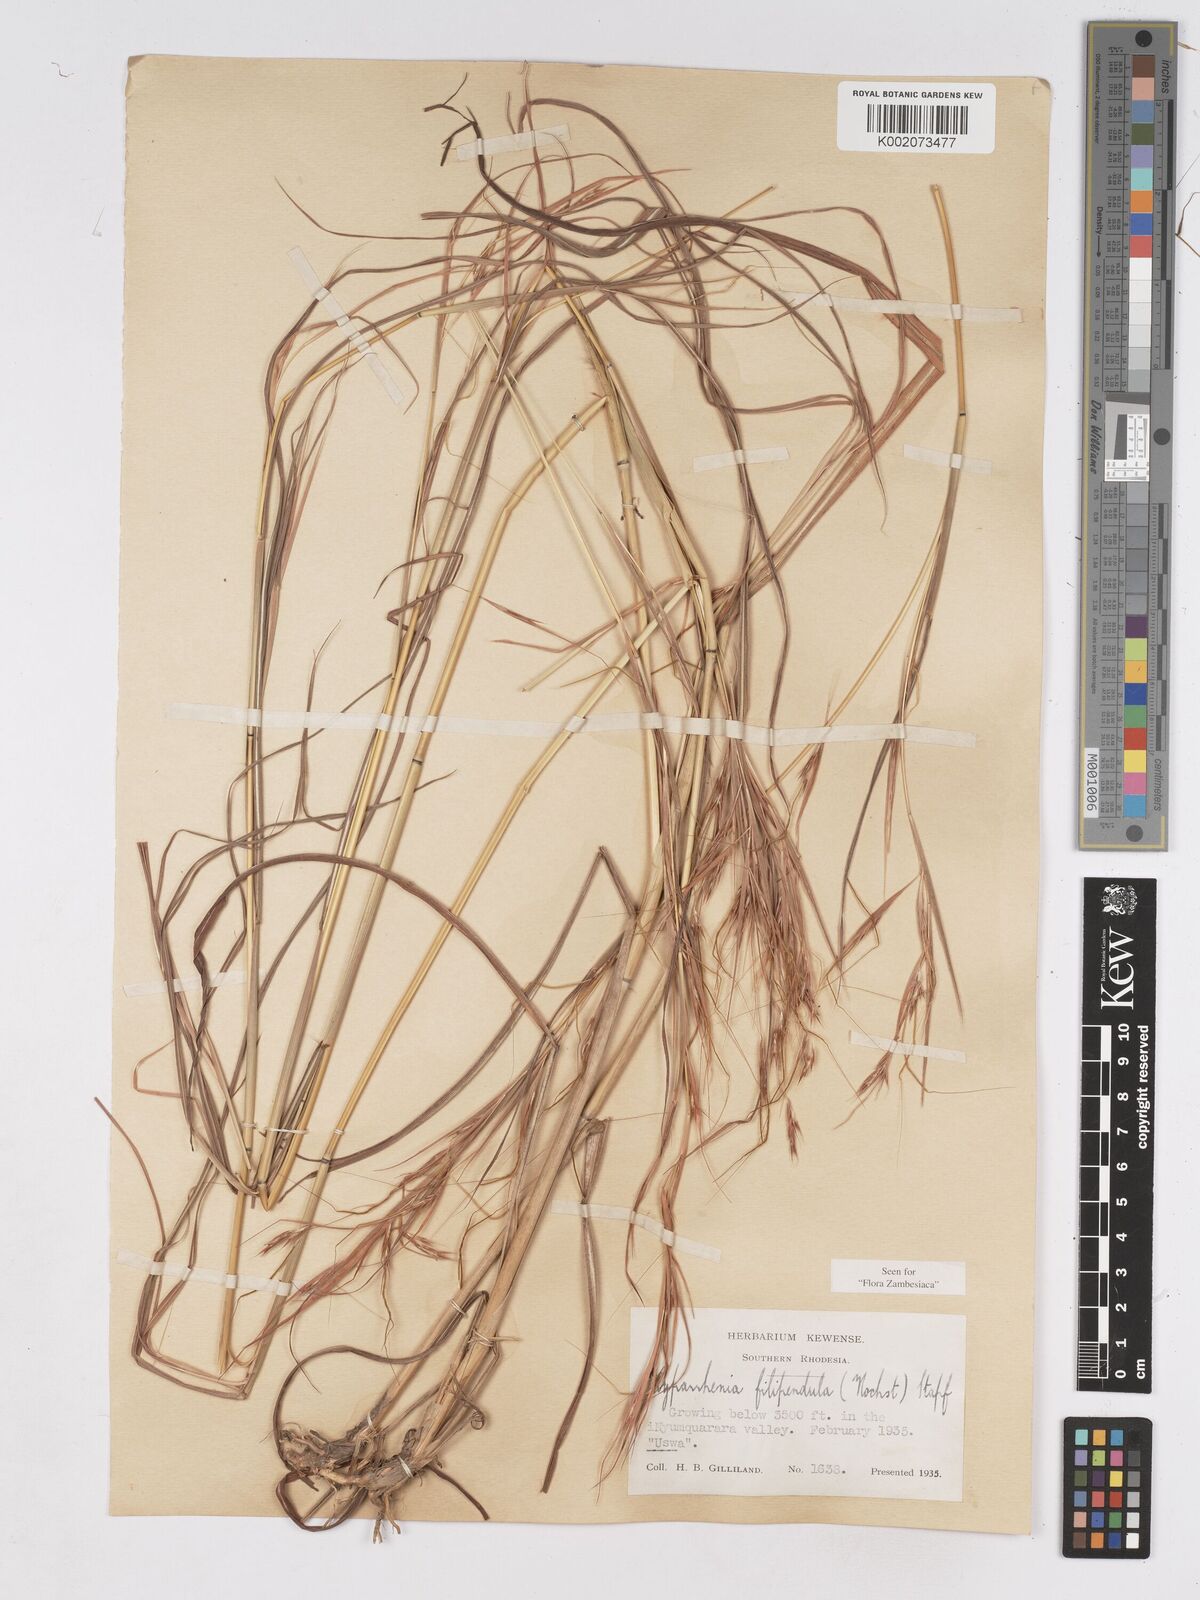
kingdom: Plantae
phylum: Tracheophyta
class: Liliopsida
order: Poales
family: Poaceae
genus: Hyparrhenia
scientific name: Hyparrhenia filipendula
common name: Tambookie grass
